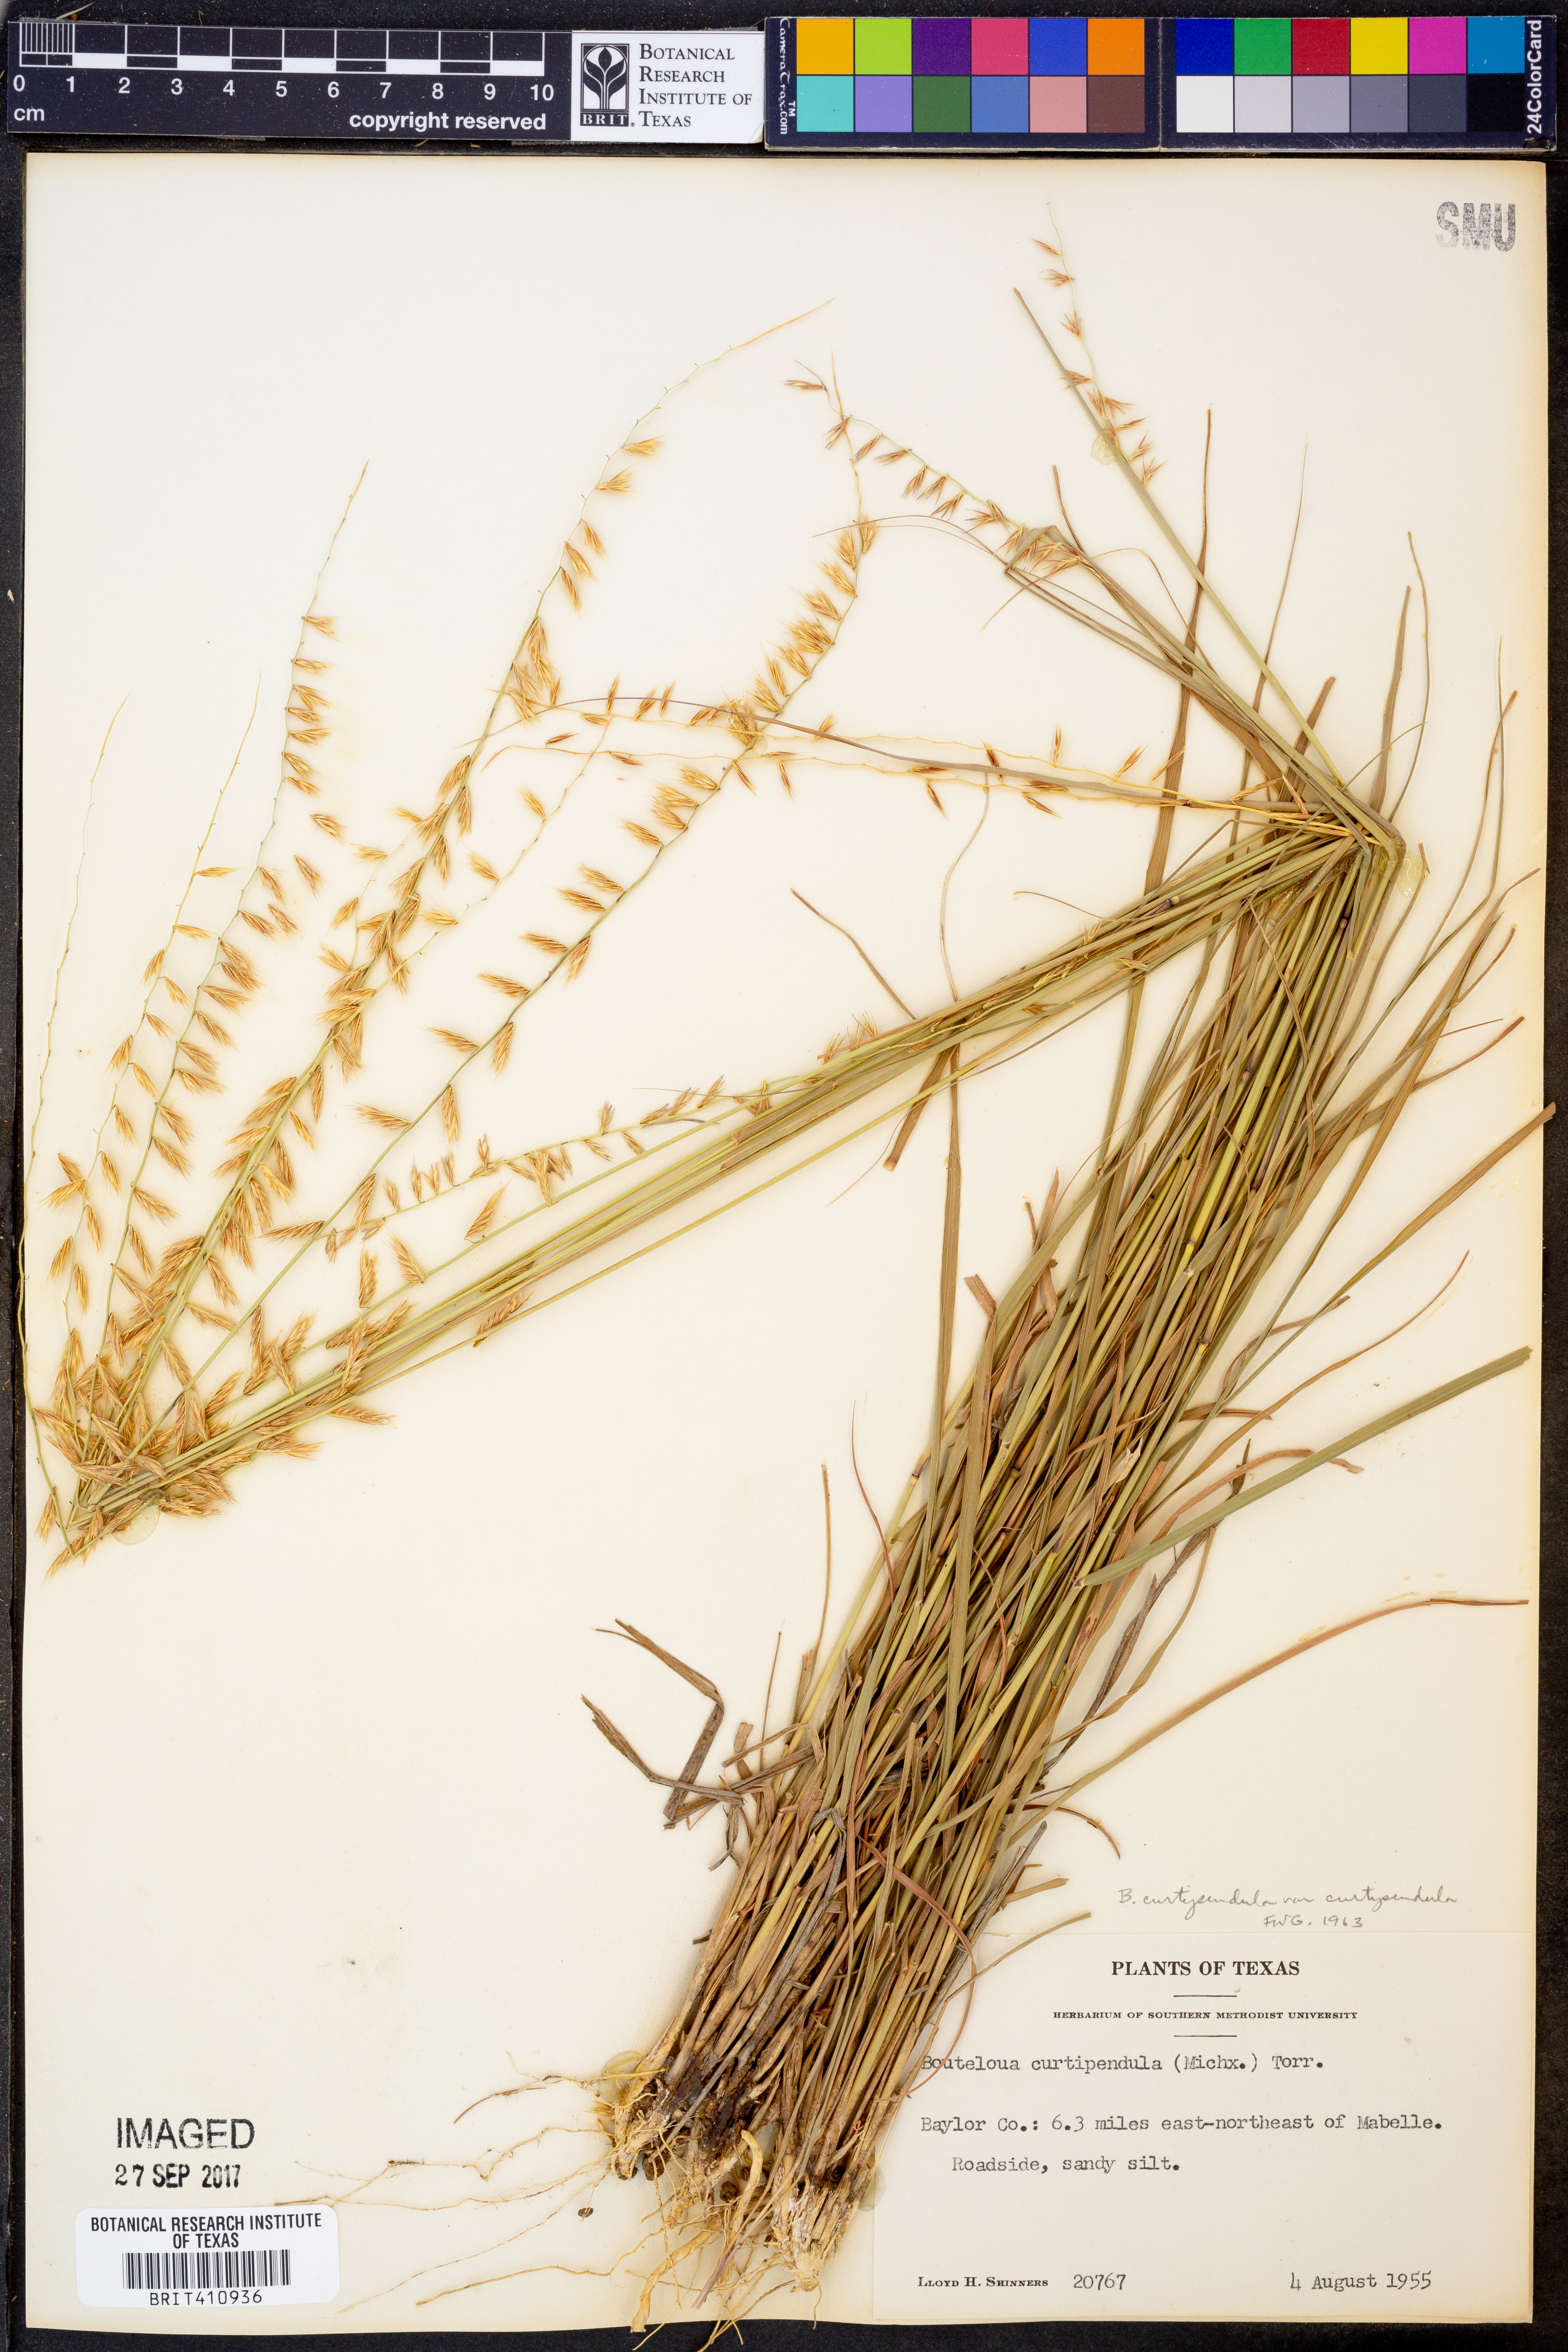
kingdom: Plantae
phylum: Tracheophyta
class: Liliopsida
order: Poales
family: Poaceae
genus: Bouteloua
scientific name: Bouteloua curtipendula
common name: Side-oats grama
